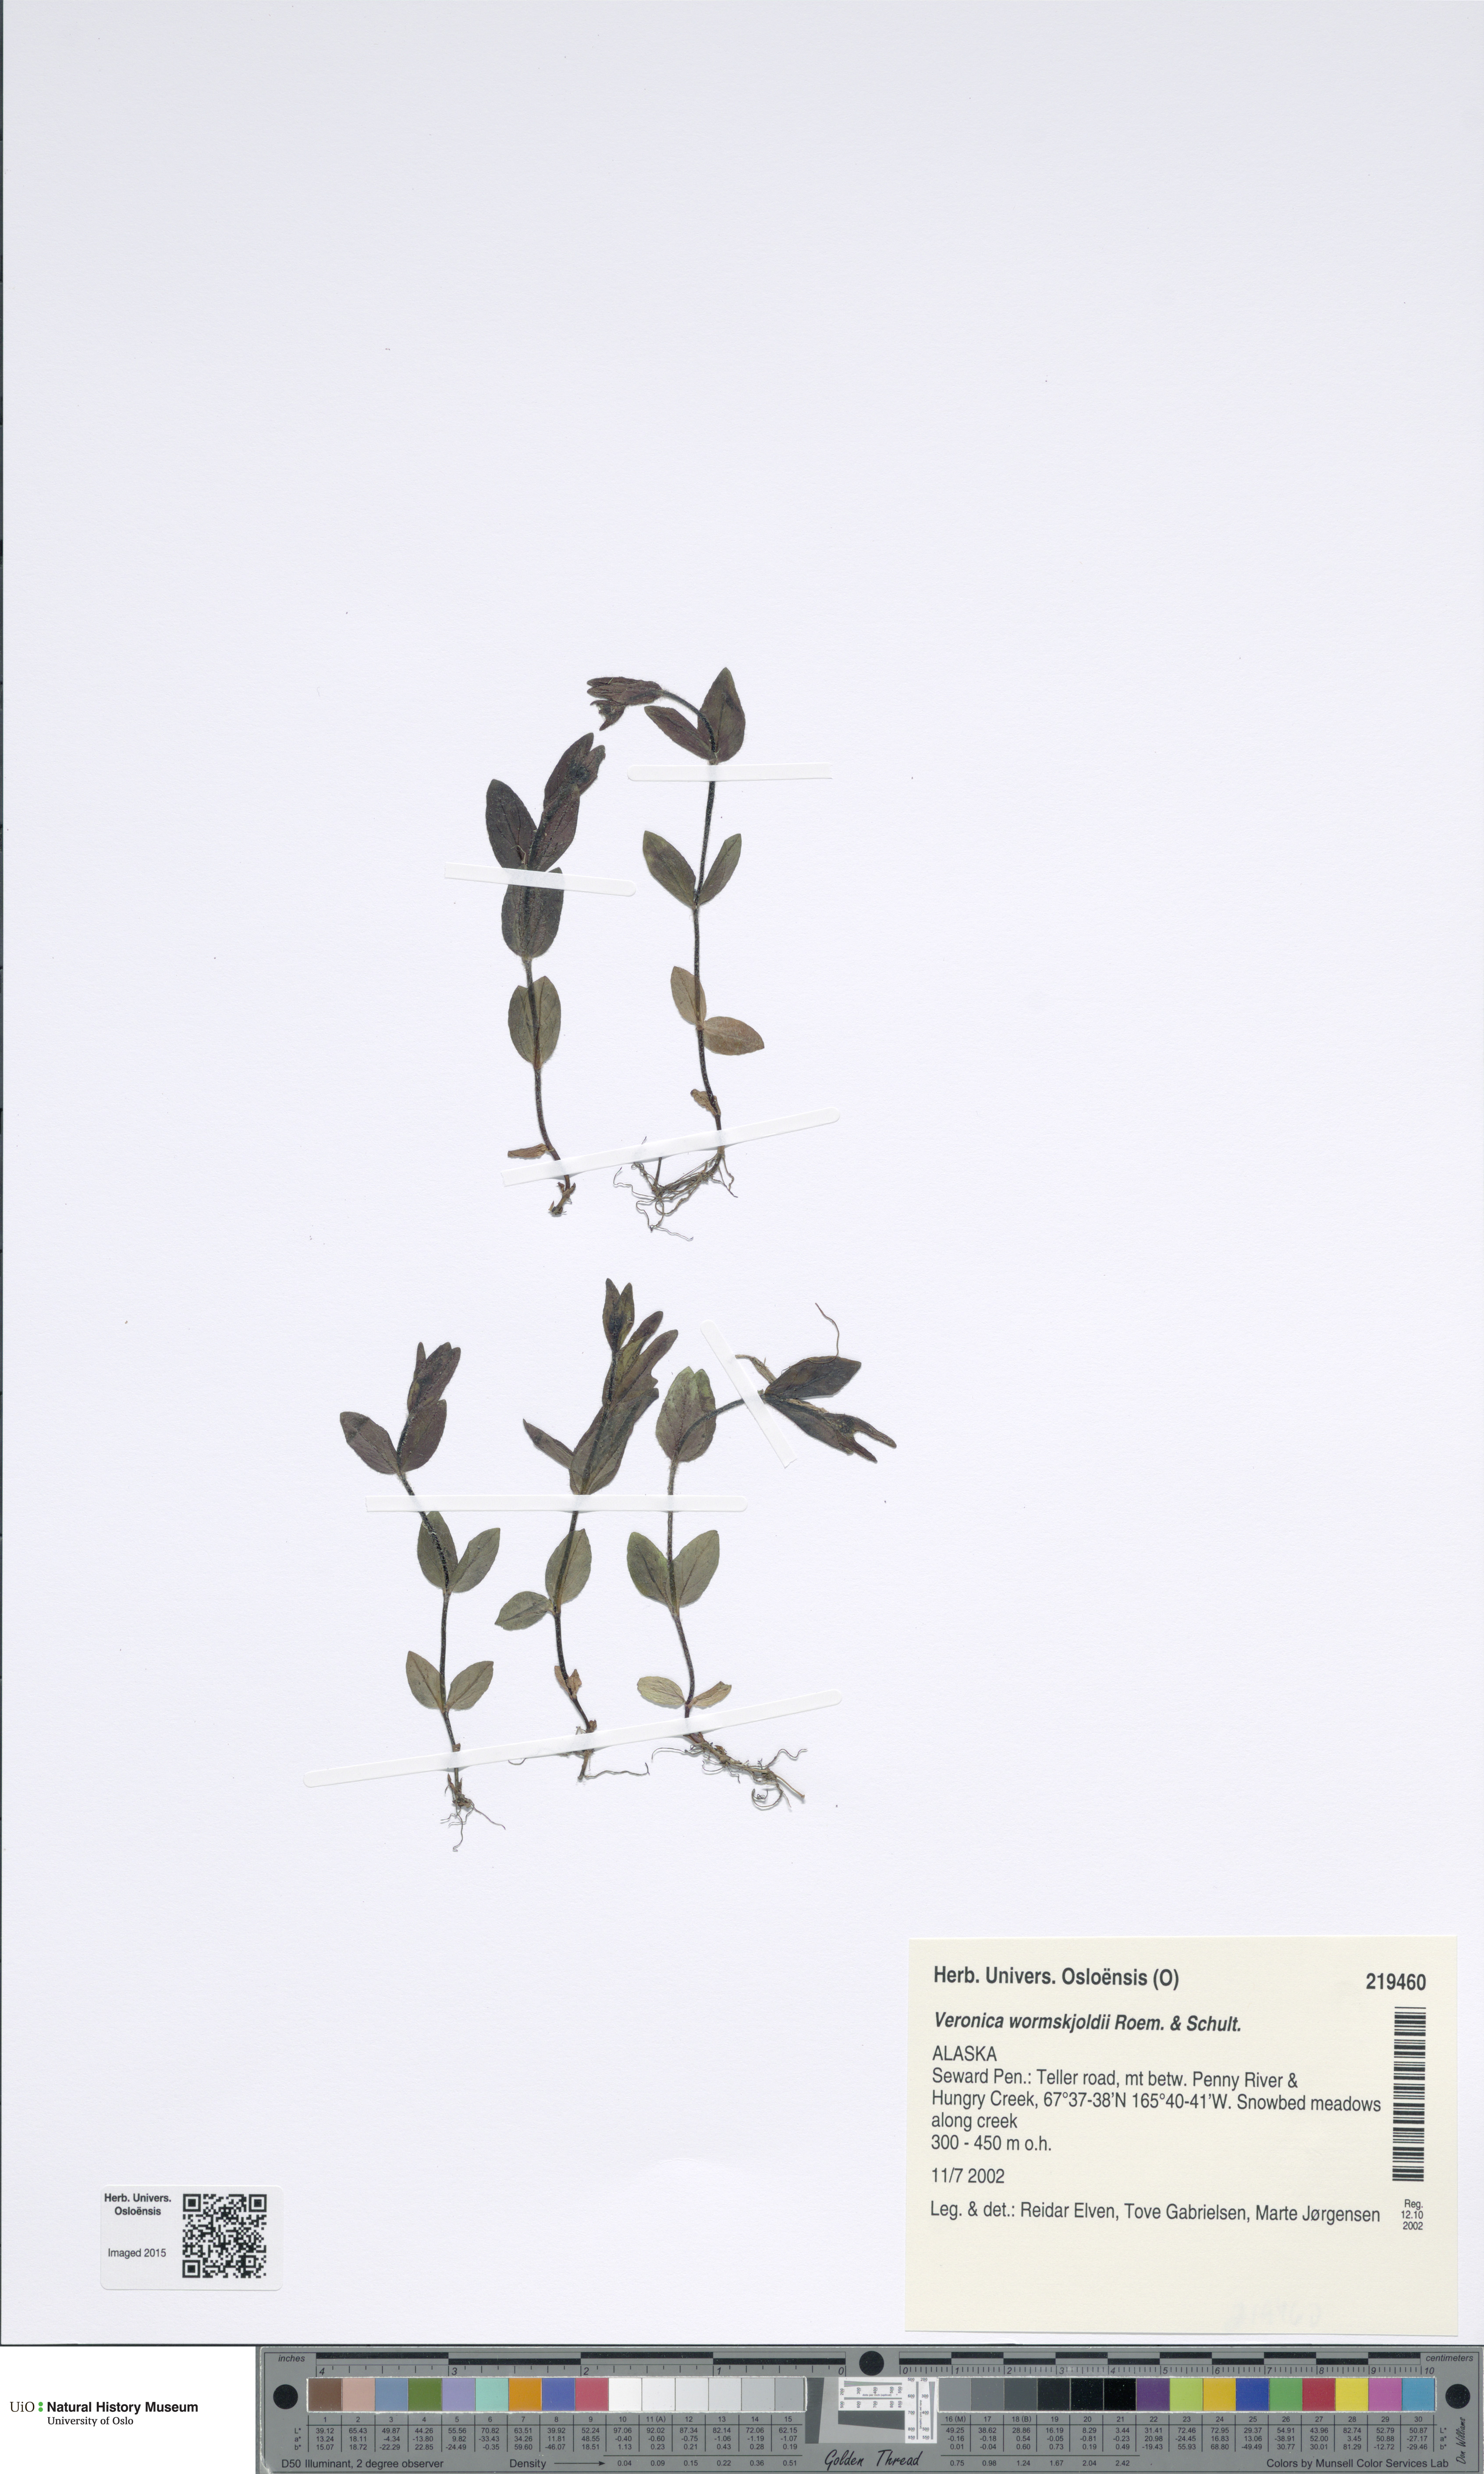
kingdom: Plantae
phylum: Tracheophyta
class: Magnoliopsida
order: Lamiales
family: Plantaginaceae
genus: Veronica
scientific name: Veronica wormskjoldii
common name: American alpine speedwell
